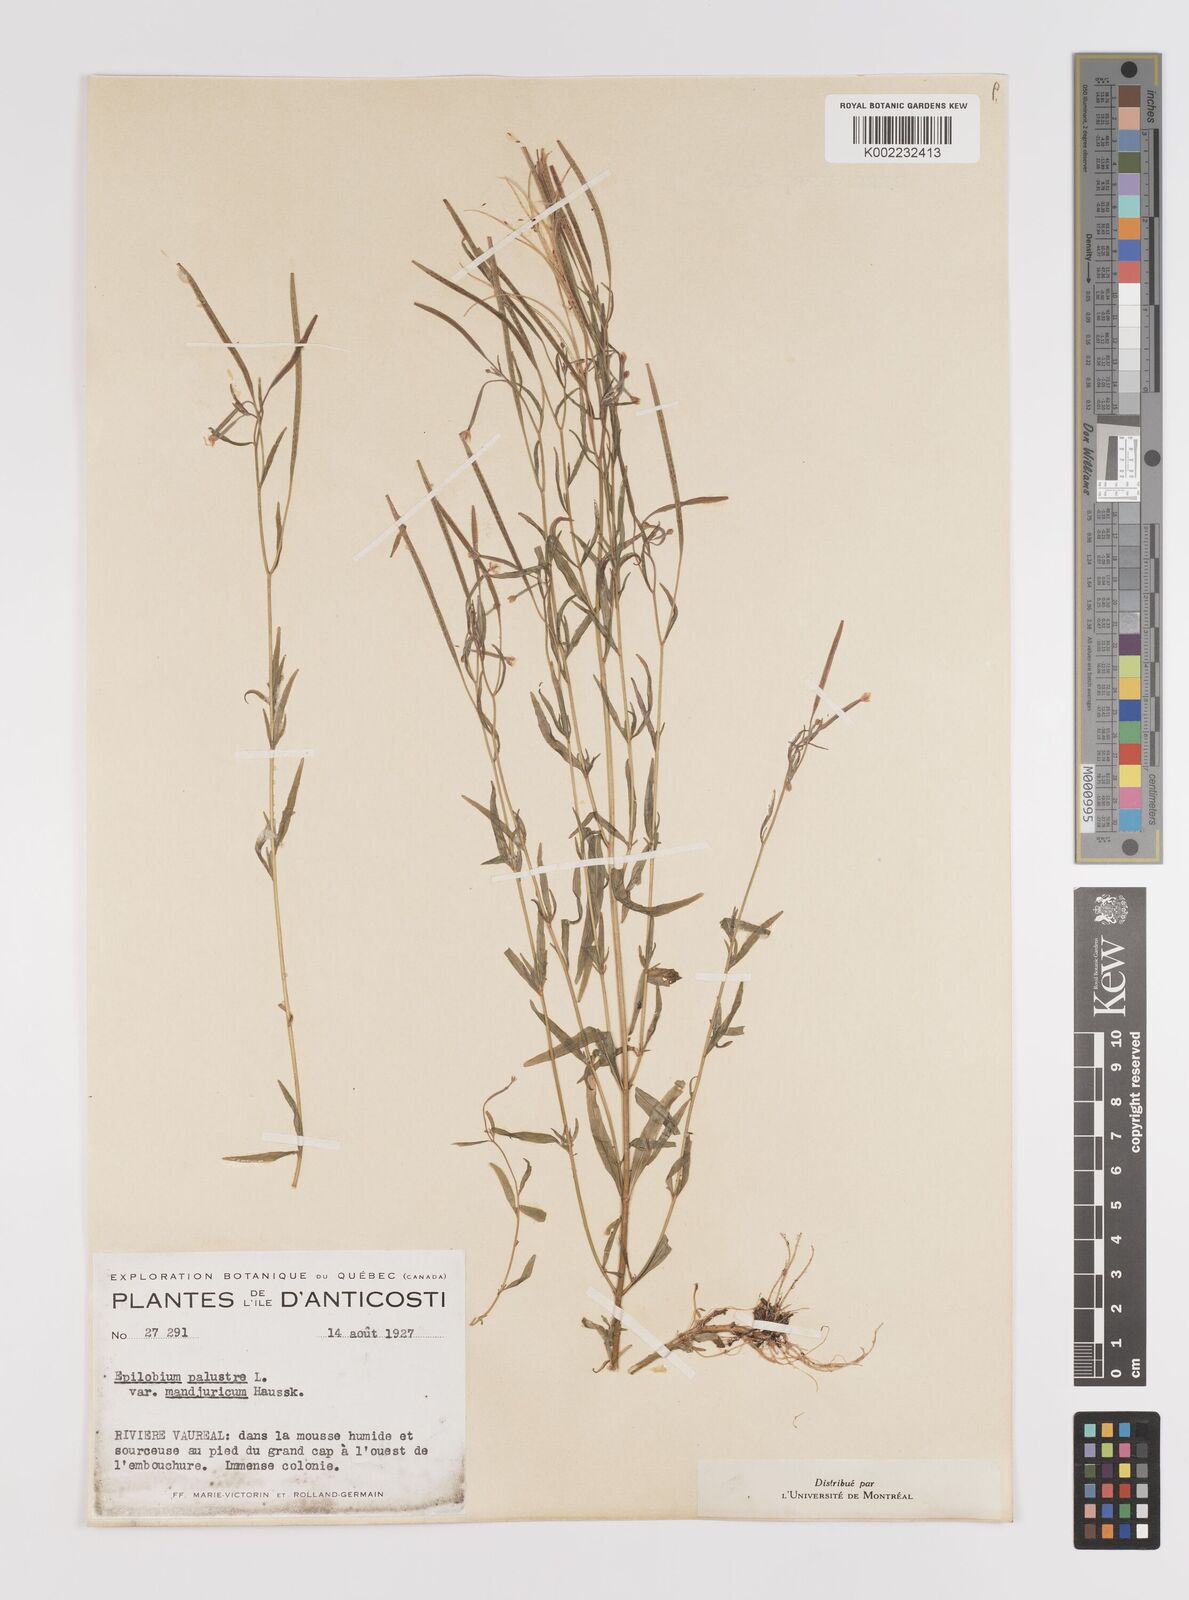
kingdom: Plantae
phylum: Tracheophyta
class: Magnoliopsida
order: Myrtales
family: Onagraceae
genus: Epilobium
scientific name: Epilobium palustre
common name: Marsh willowherb
